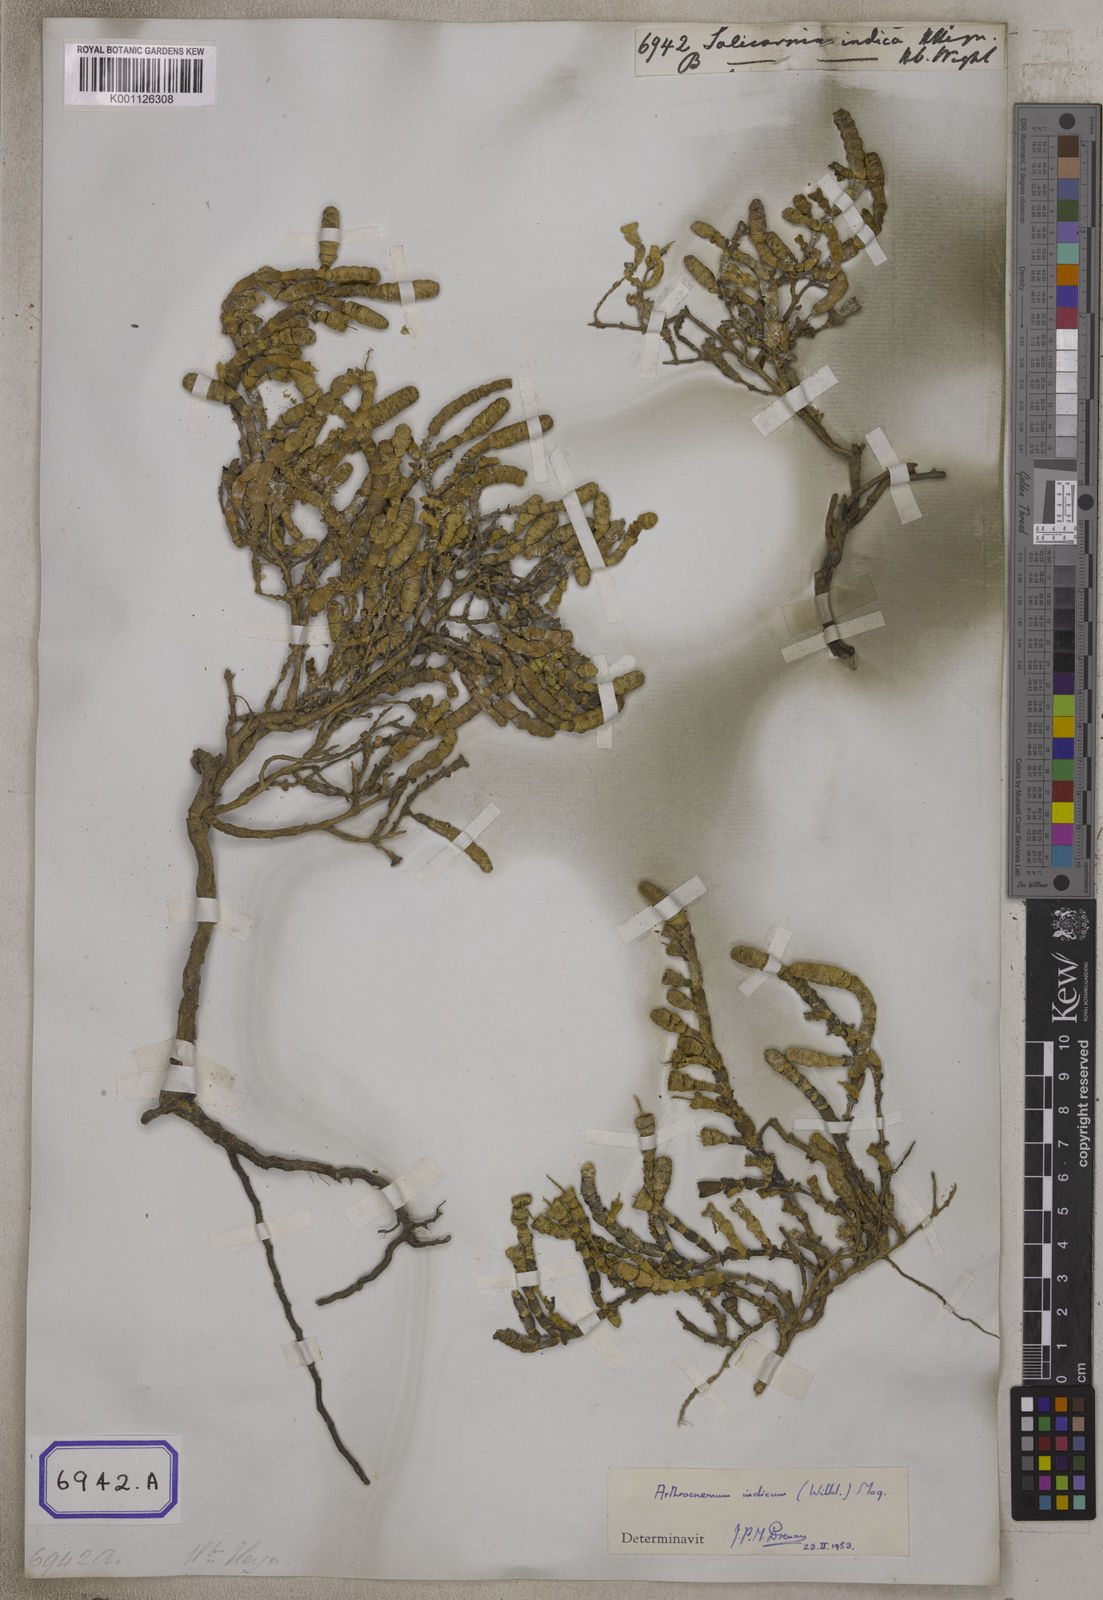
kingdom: Plantae
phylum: Tracheophyta
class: Magnoliopsida
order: Caryophyllales
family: Amaranthaceae
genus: Tecticornia
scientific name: Tecticornia indica
